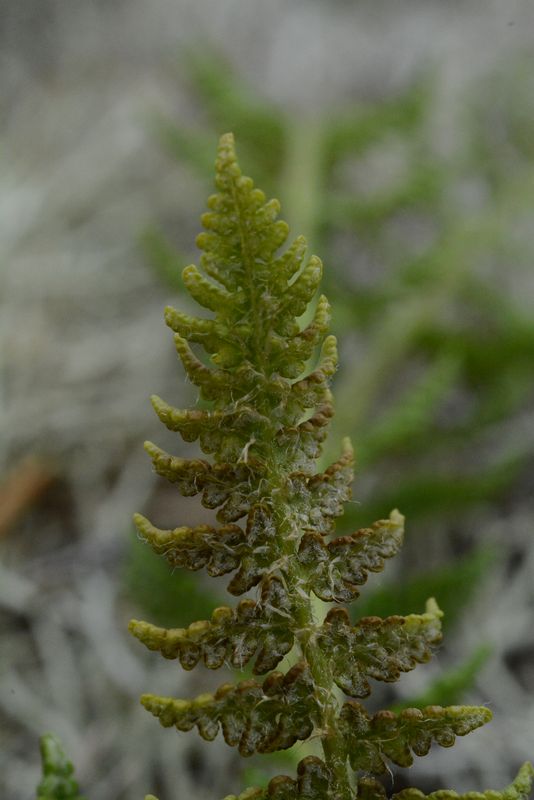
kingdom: Plantae
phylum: Tracheophyta
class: Polypodiopsida
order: Polypodiales
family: Woodsiaceae
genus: Woodsia
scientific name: Woodsia ilvensis
